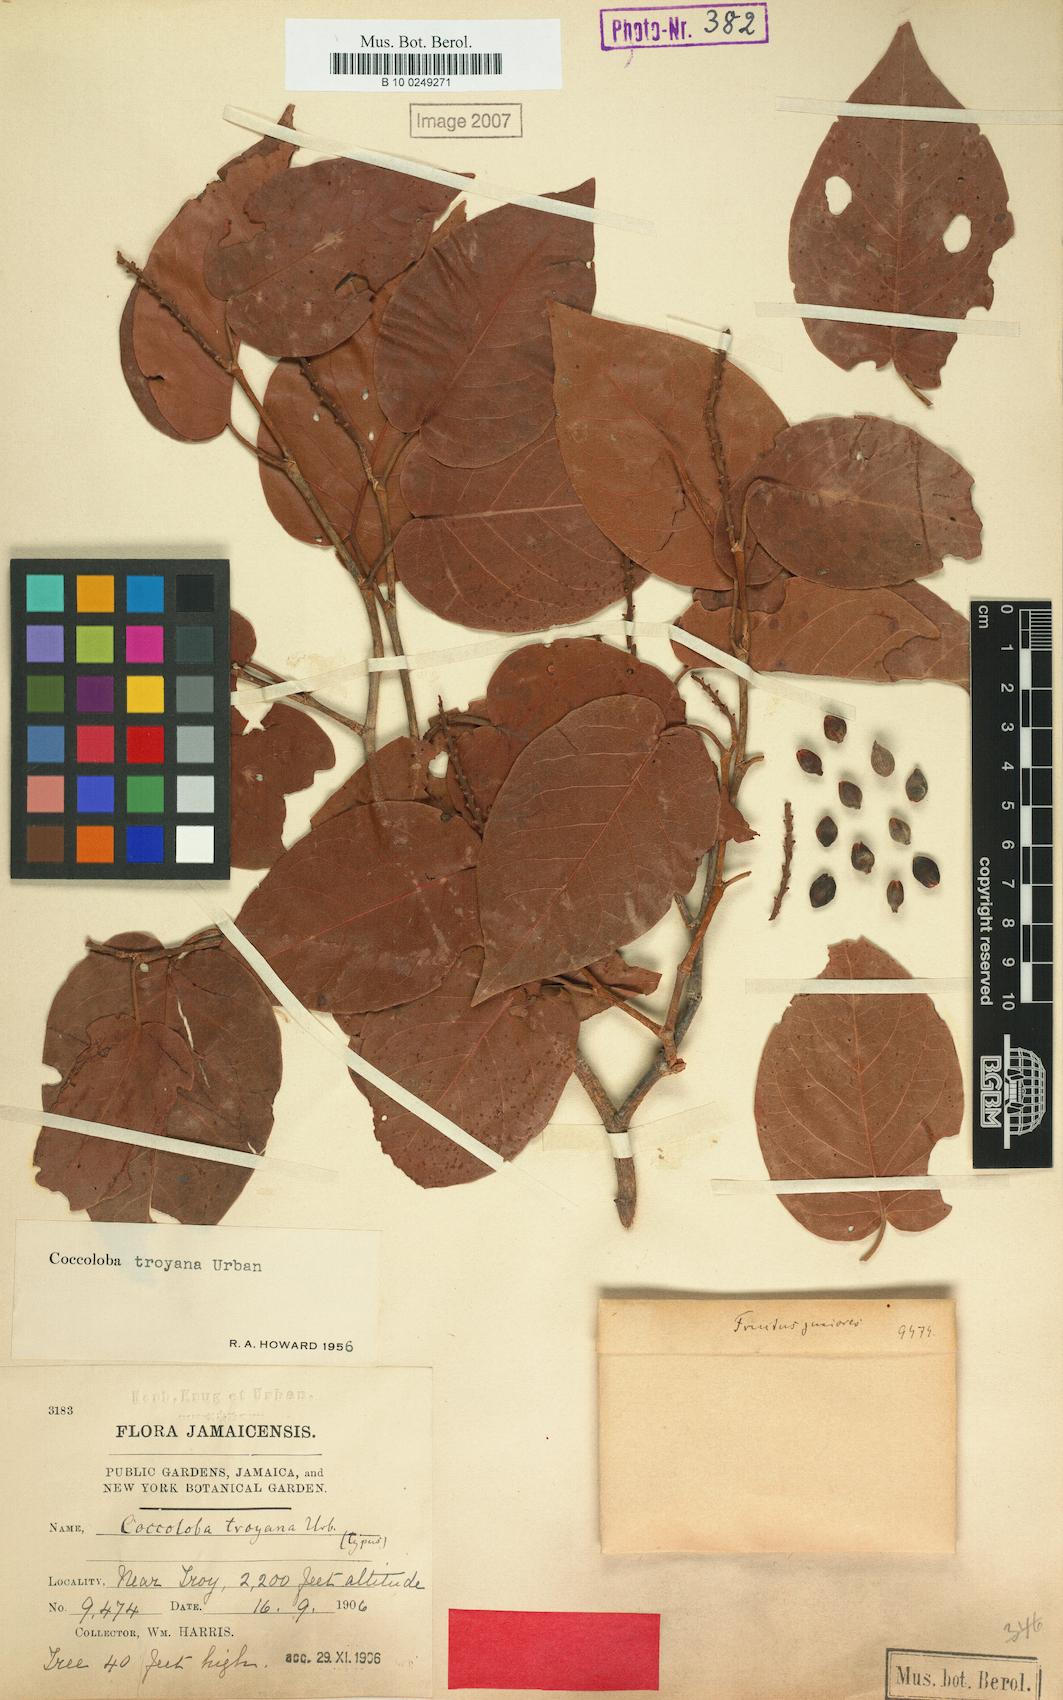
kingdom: Plantae
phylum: Tracheophyta
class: Magnoliopsida
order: Caryophyllales
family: Polygonaceae
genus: Coccoloba
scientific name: Coccoloba troyana
